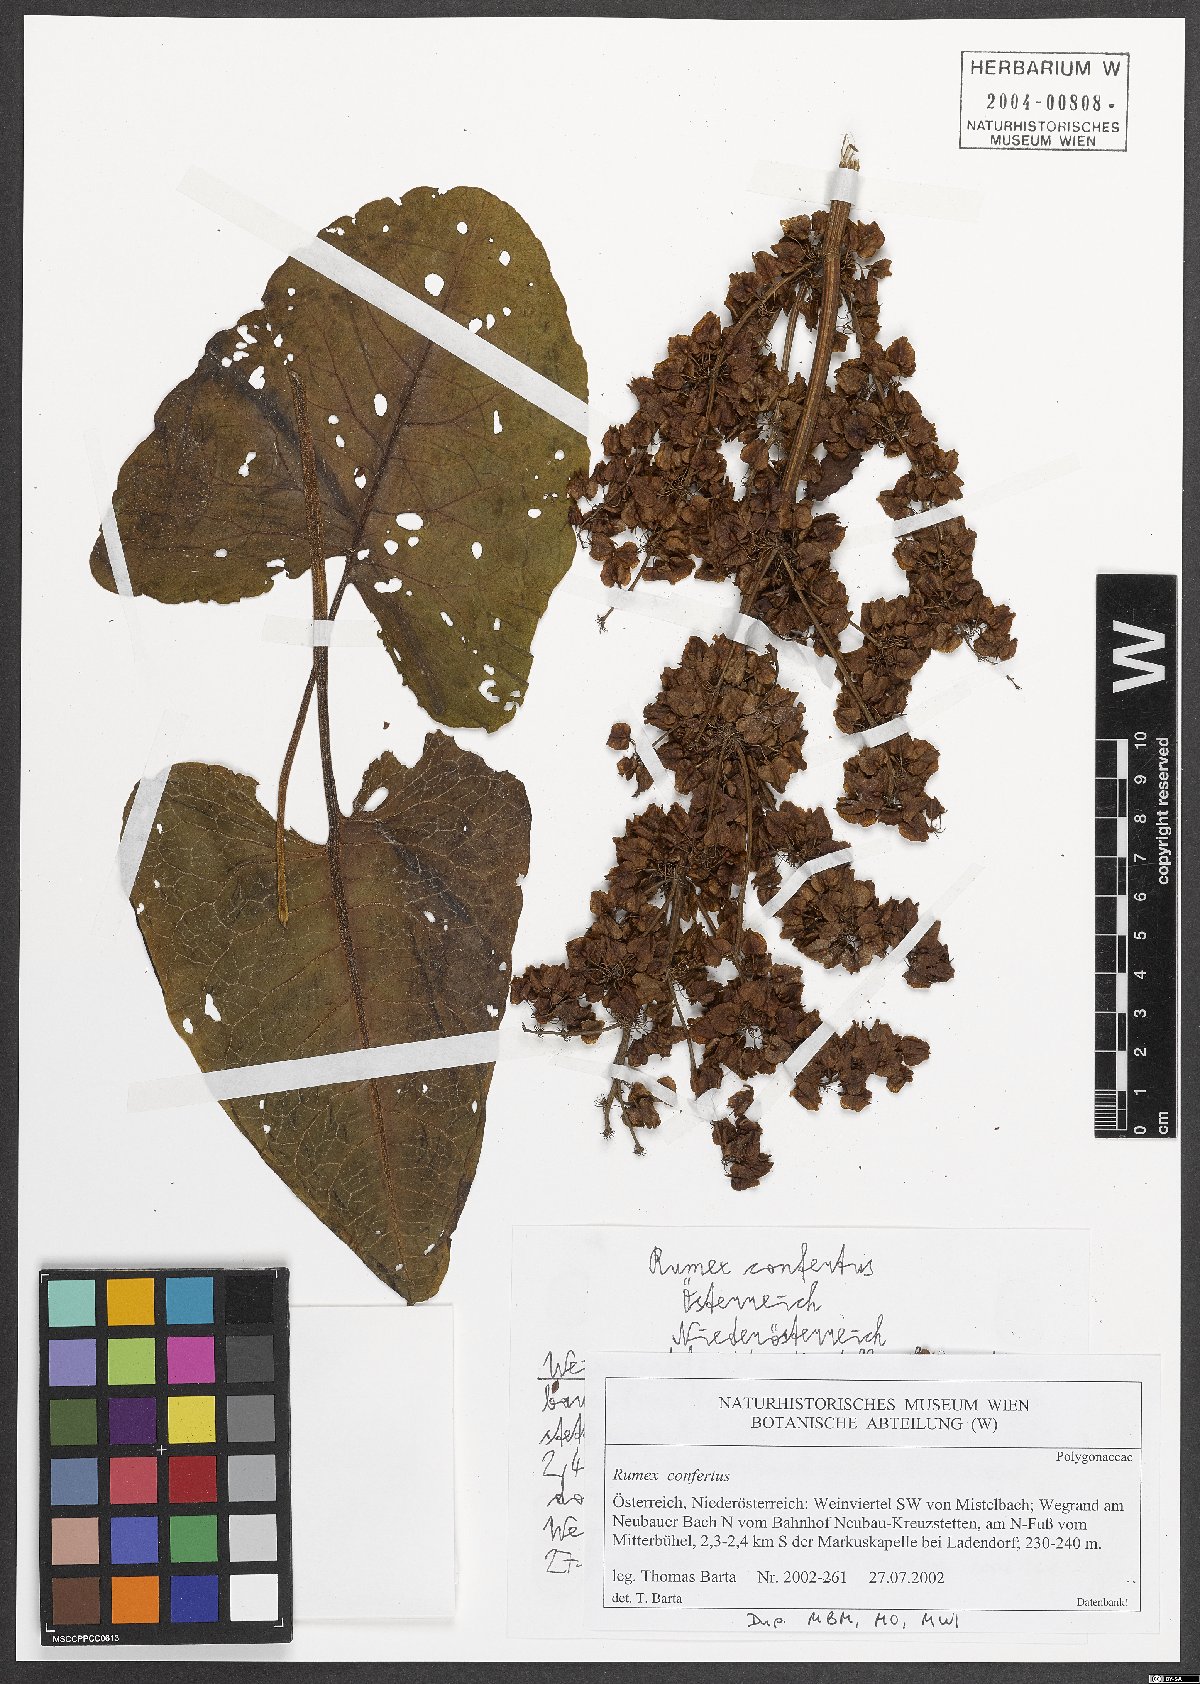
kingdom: Plantae
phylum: Tracheophyta
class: Magnoliopsida
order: Caryophyllales
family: Polygonaceae
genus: Rumex
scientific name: Rumex confertus
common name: Russian dock
